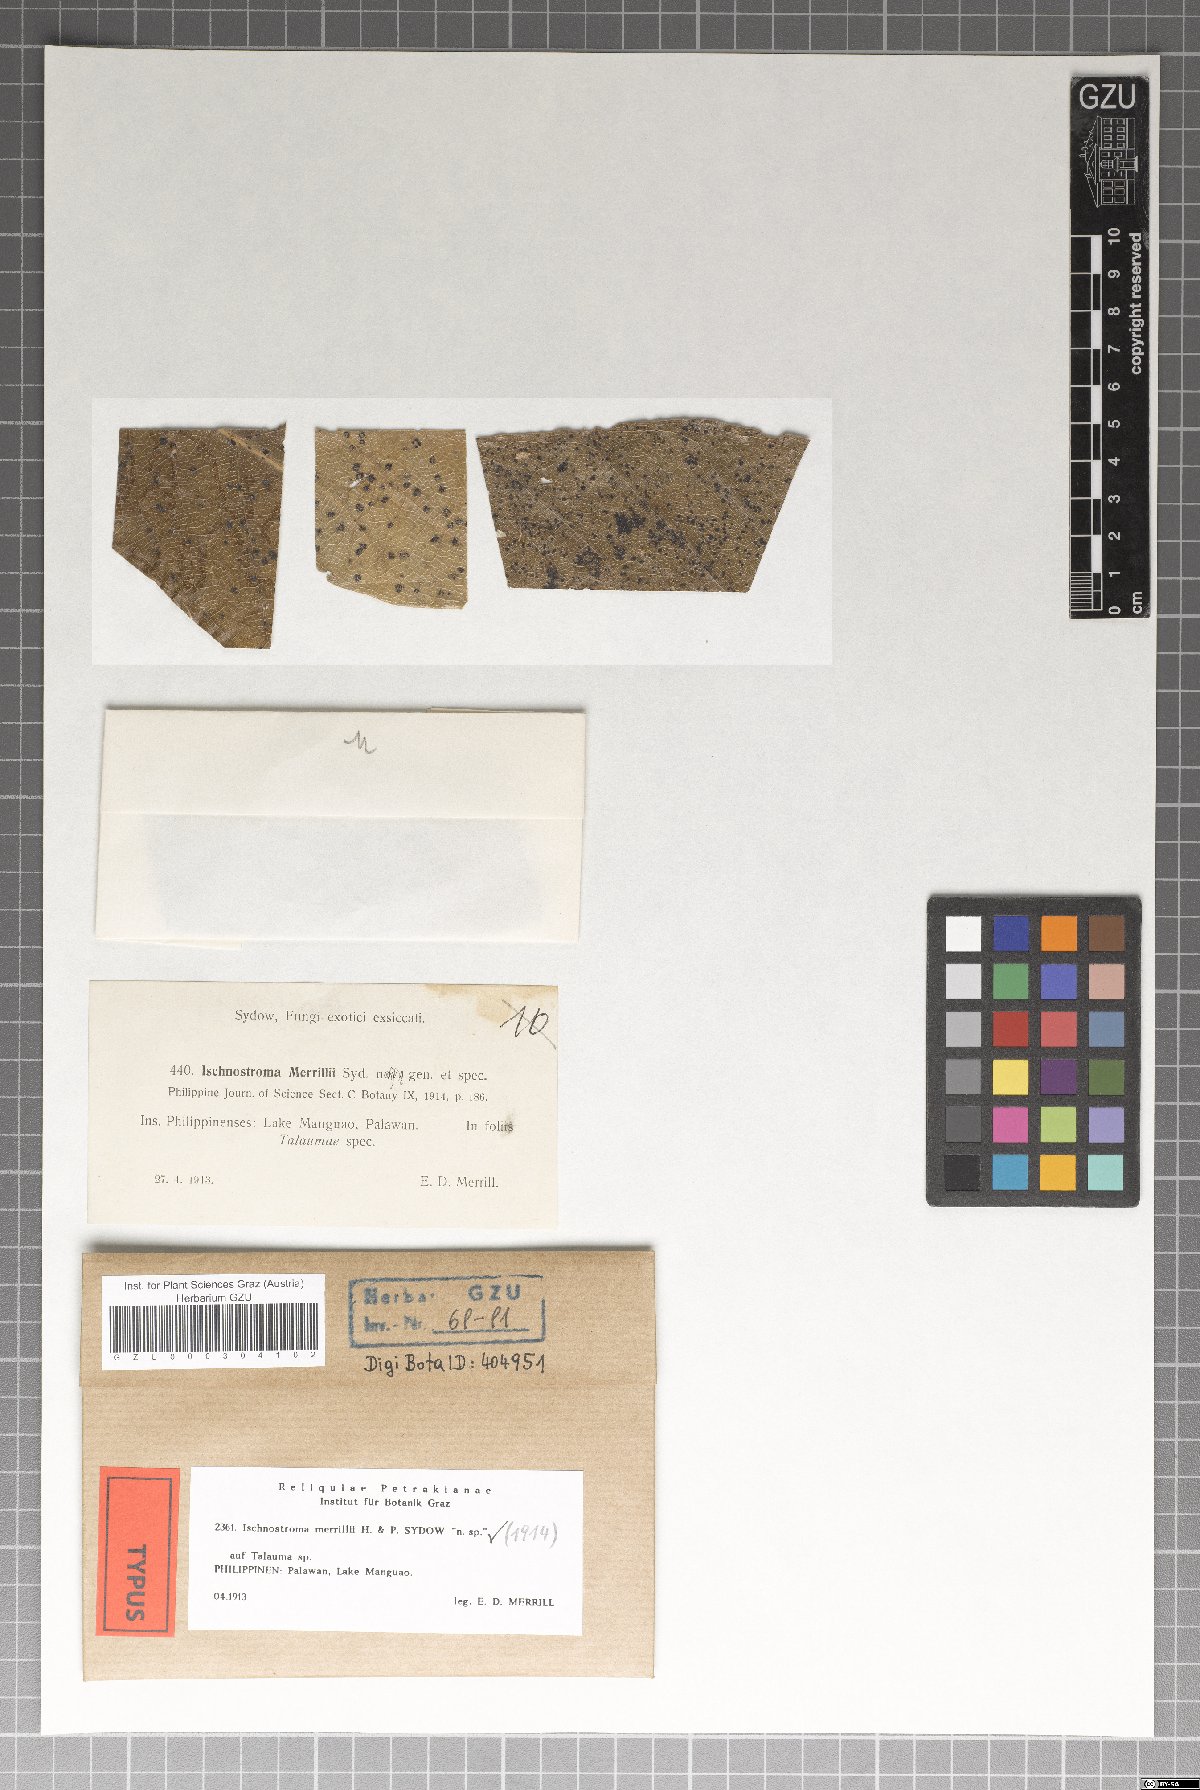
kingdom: Fungi
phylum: Ascomycota
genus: Ischnostroma
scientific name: Ischnostroma merrillii
